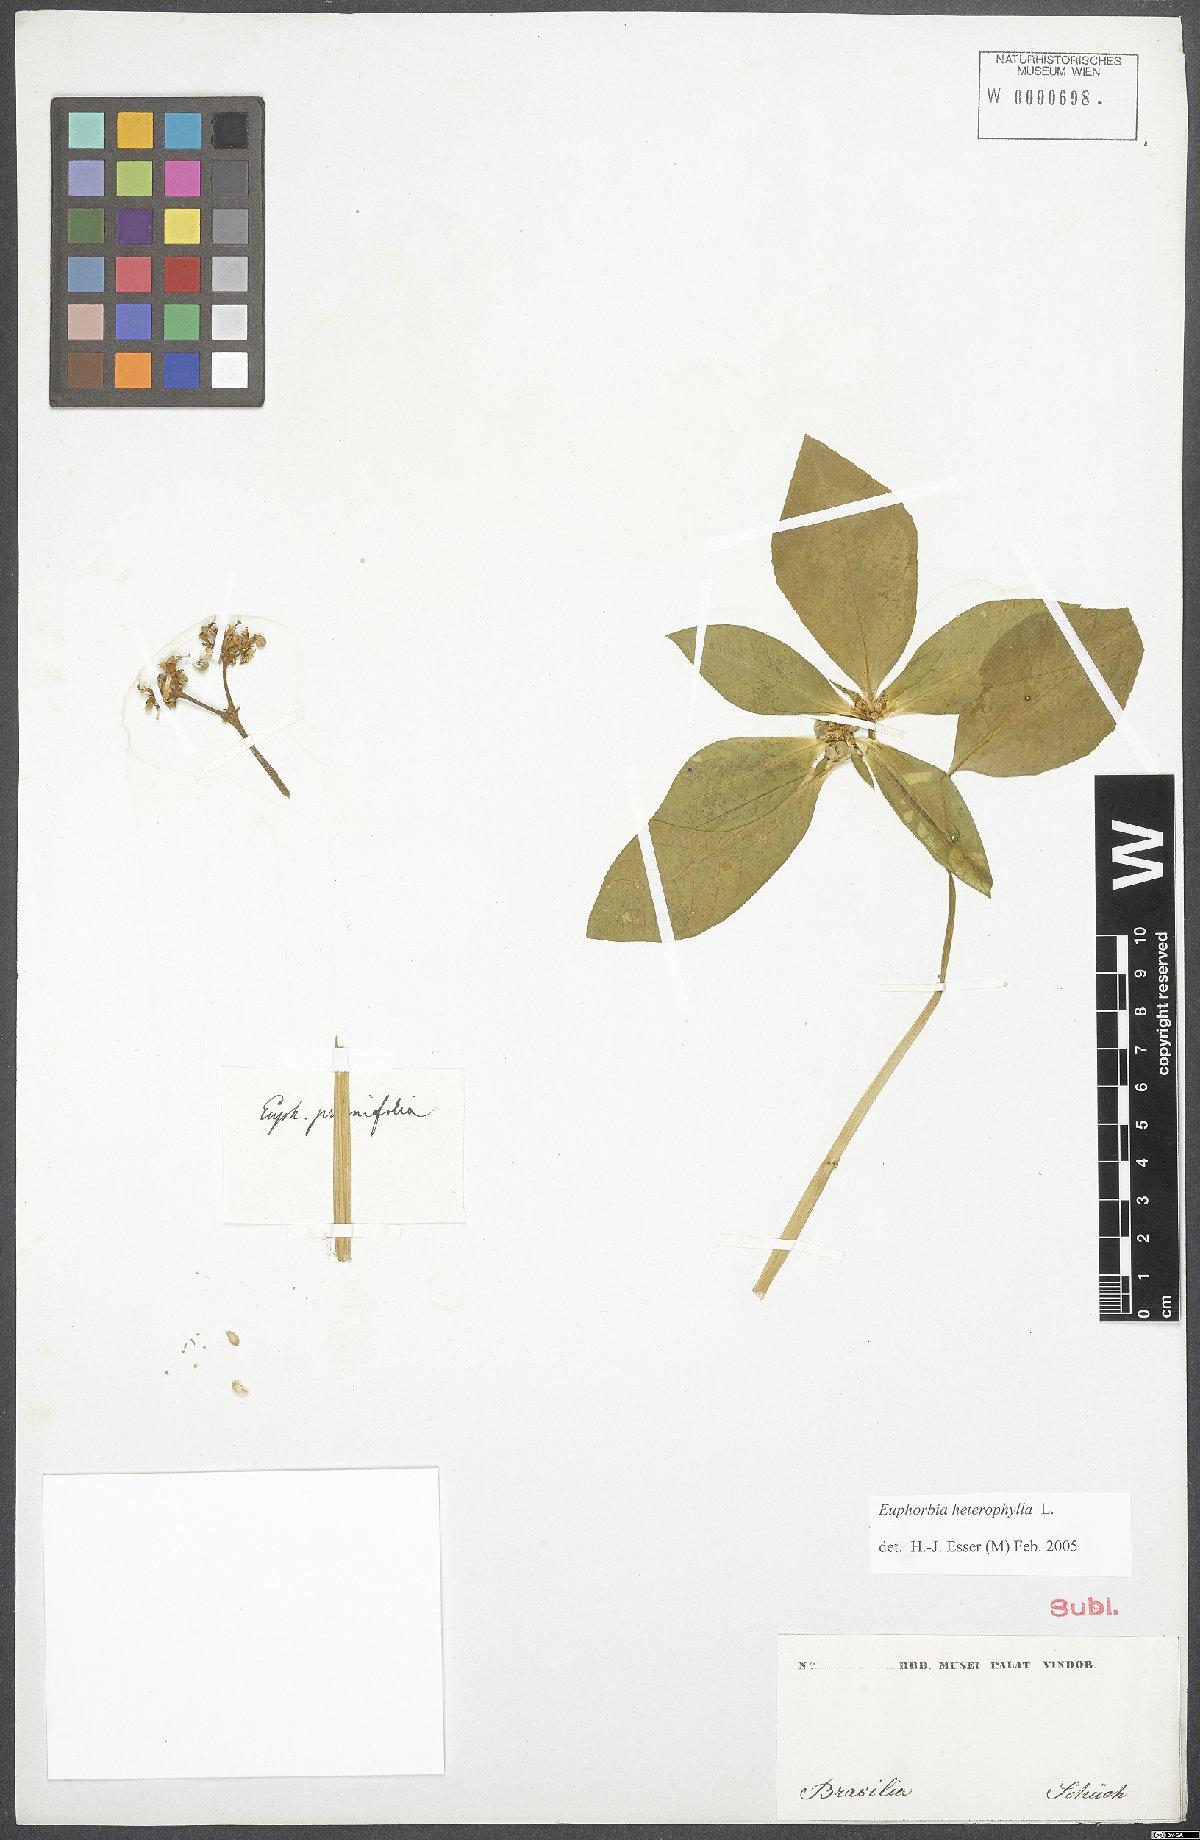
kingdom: Plantae
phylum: Tracheophyta
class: Magnoliopsida
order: Malpighiales
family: Euphorbiaceae
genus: Euphorbia
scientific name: Euphorbia heterophylla
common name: Mexican fireplant
